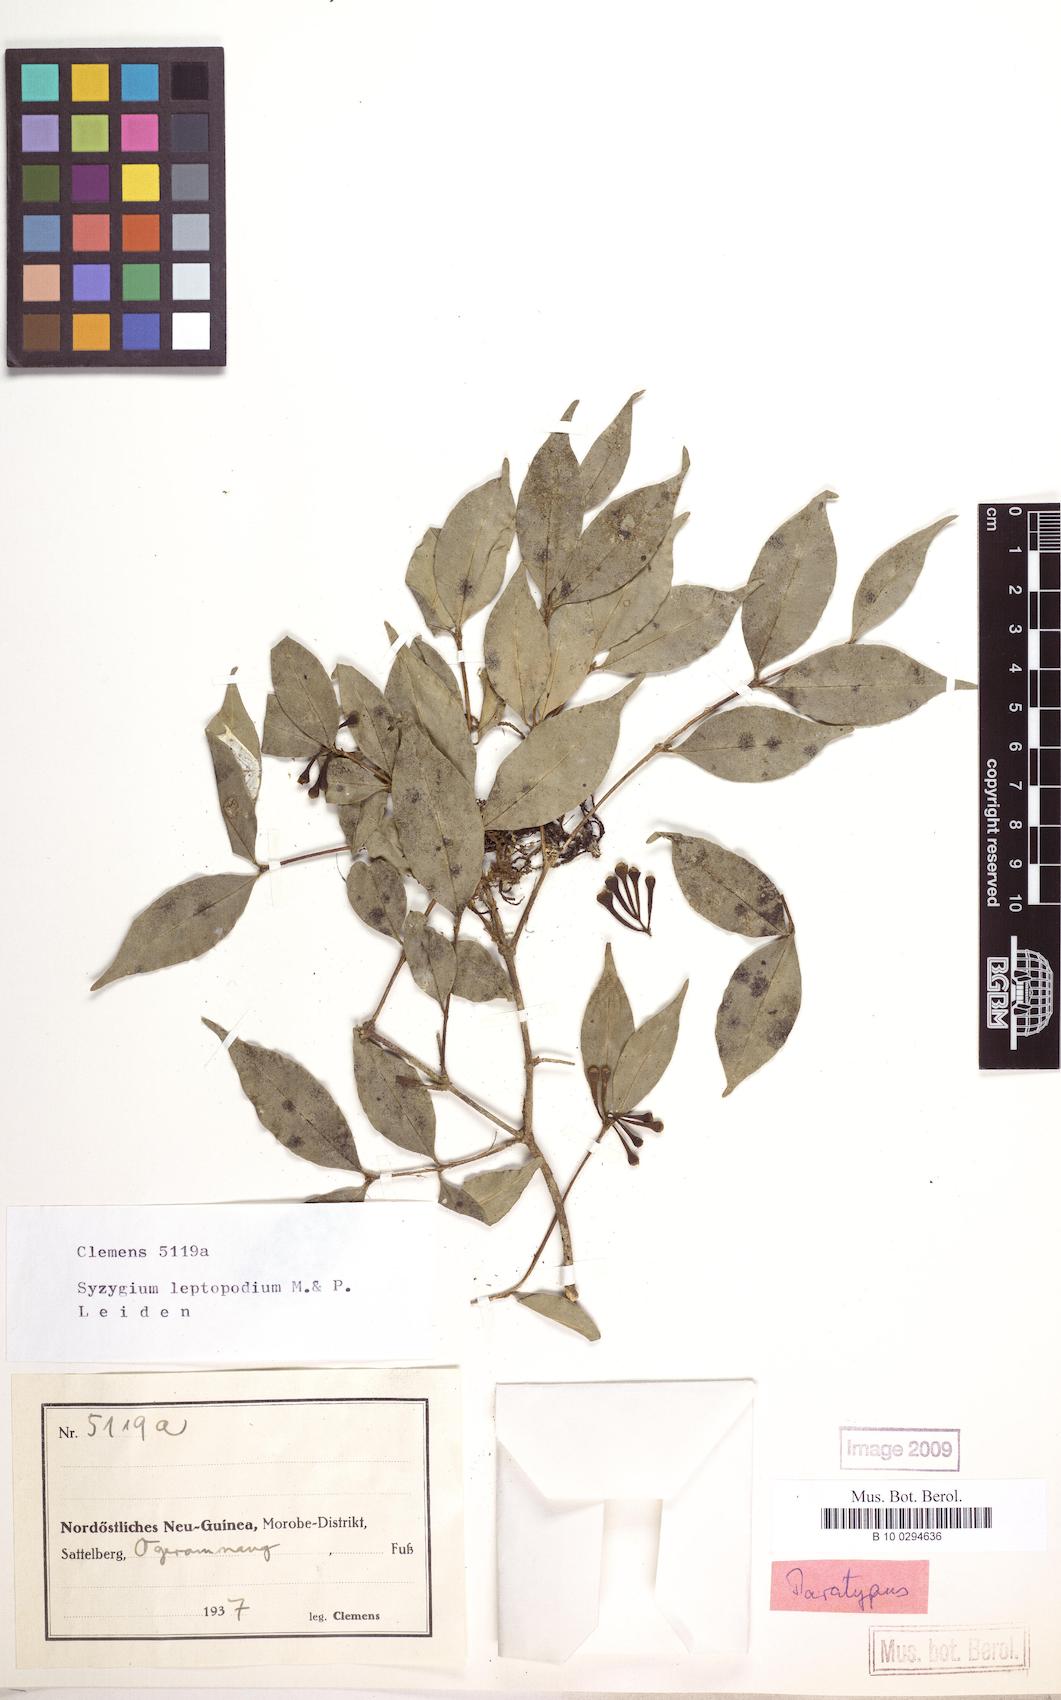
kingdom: Plantae
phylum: Tracheophyta
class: Magnoliopsida
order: Myrtales
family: Myrtaceae
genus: Syzygium
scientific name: Syzygium leptopodium
